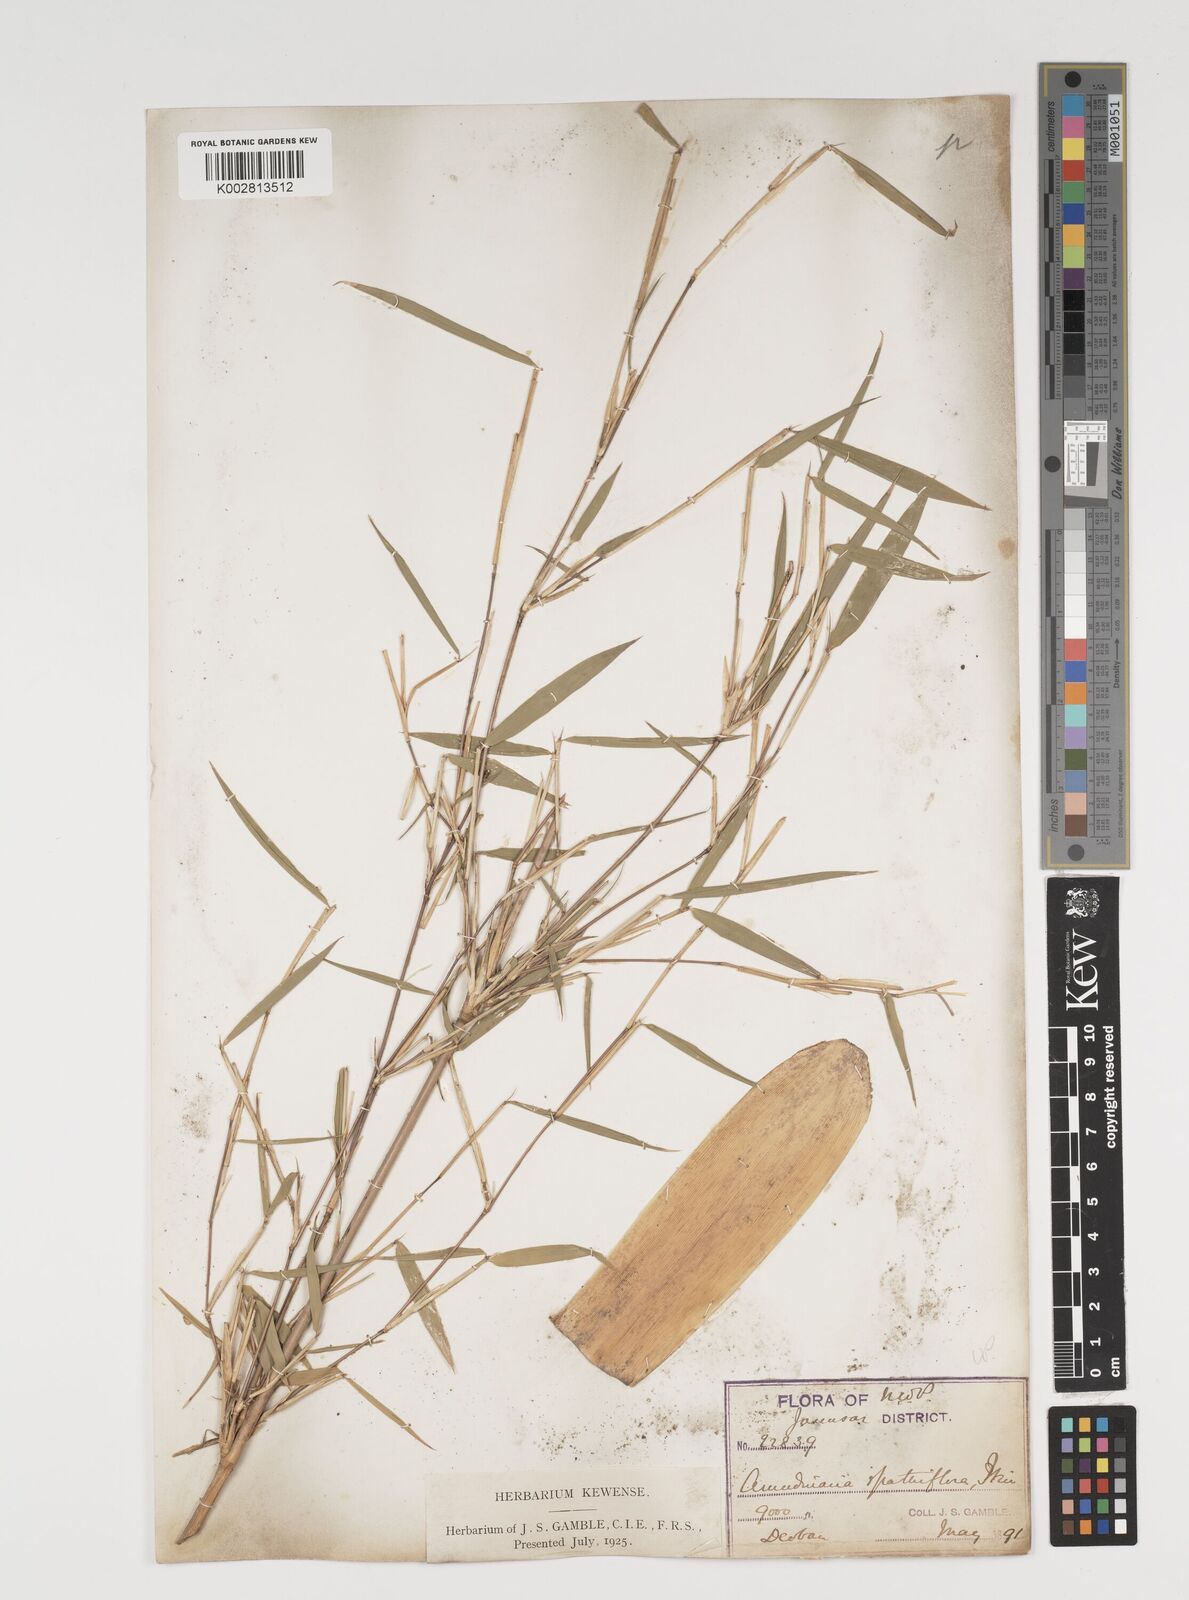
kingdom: Plantae
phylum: Tracheophyta
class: Liliopsida
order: Poales
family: Poaceae
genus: Thamnocalamus
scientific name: Thamnocalamus spathiflorus
